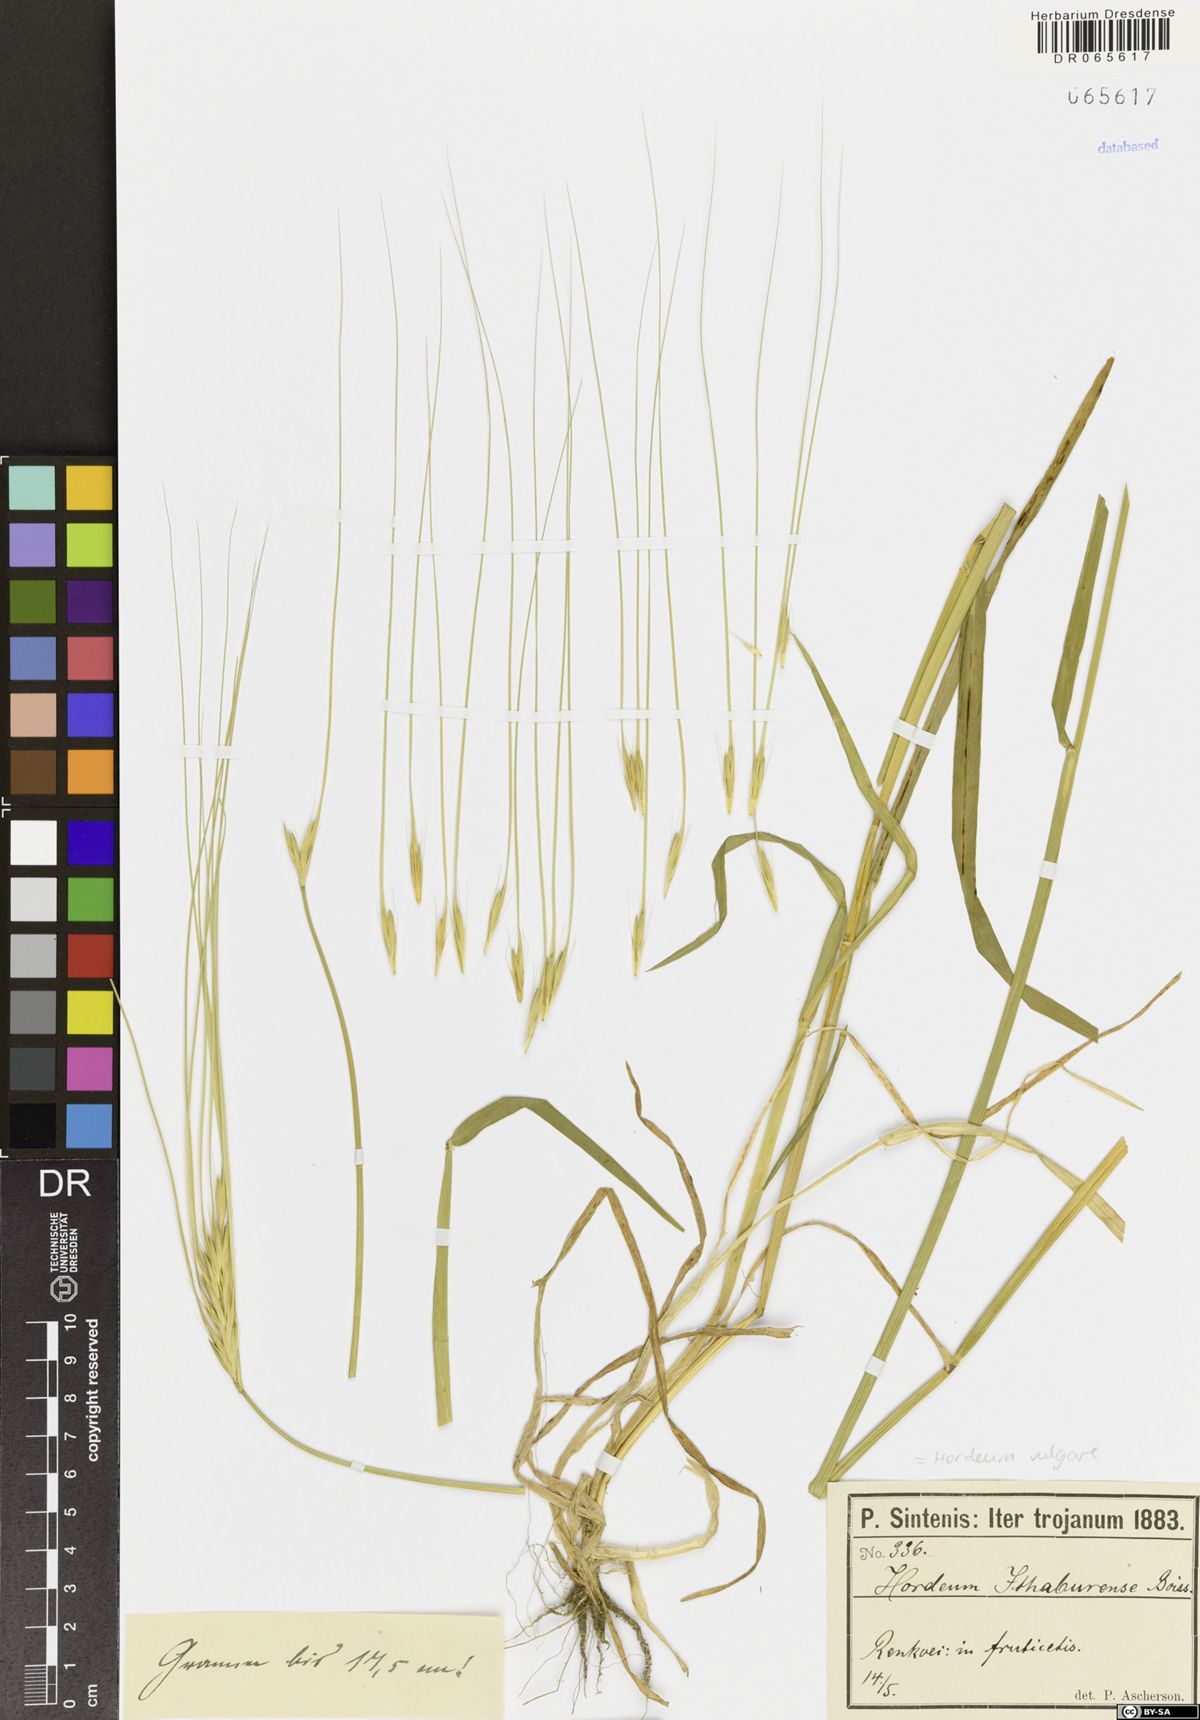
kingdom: Plantae
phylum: Tracheophyta
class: Liliopsida
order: Poales
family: Poaceae
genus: Hordeum
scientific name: Hordeum vulgare
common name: Common barley
